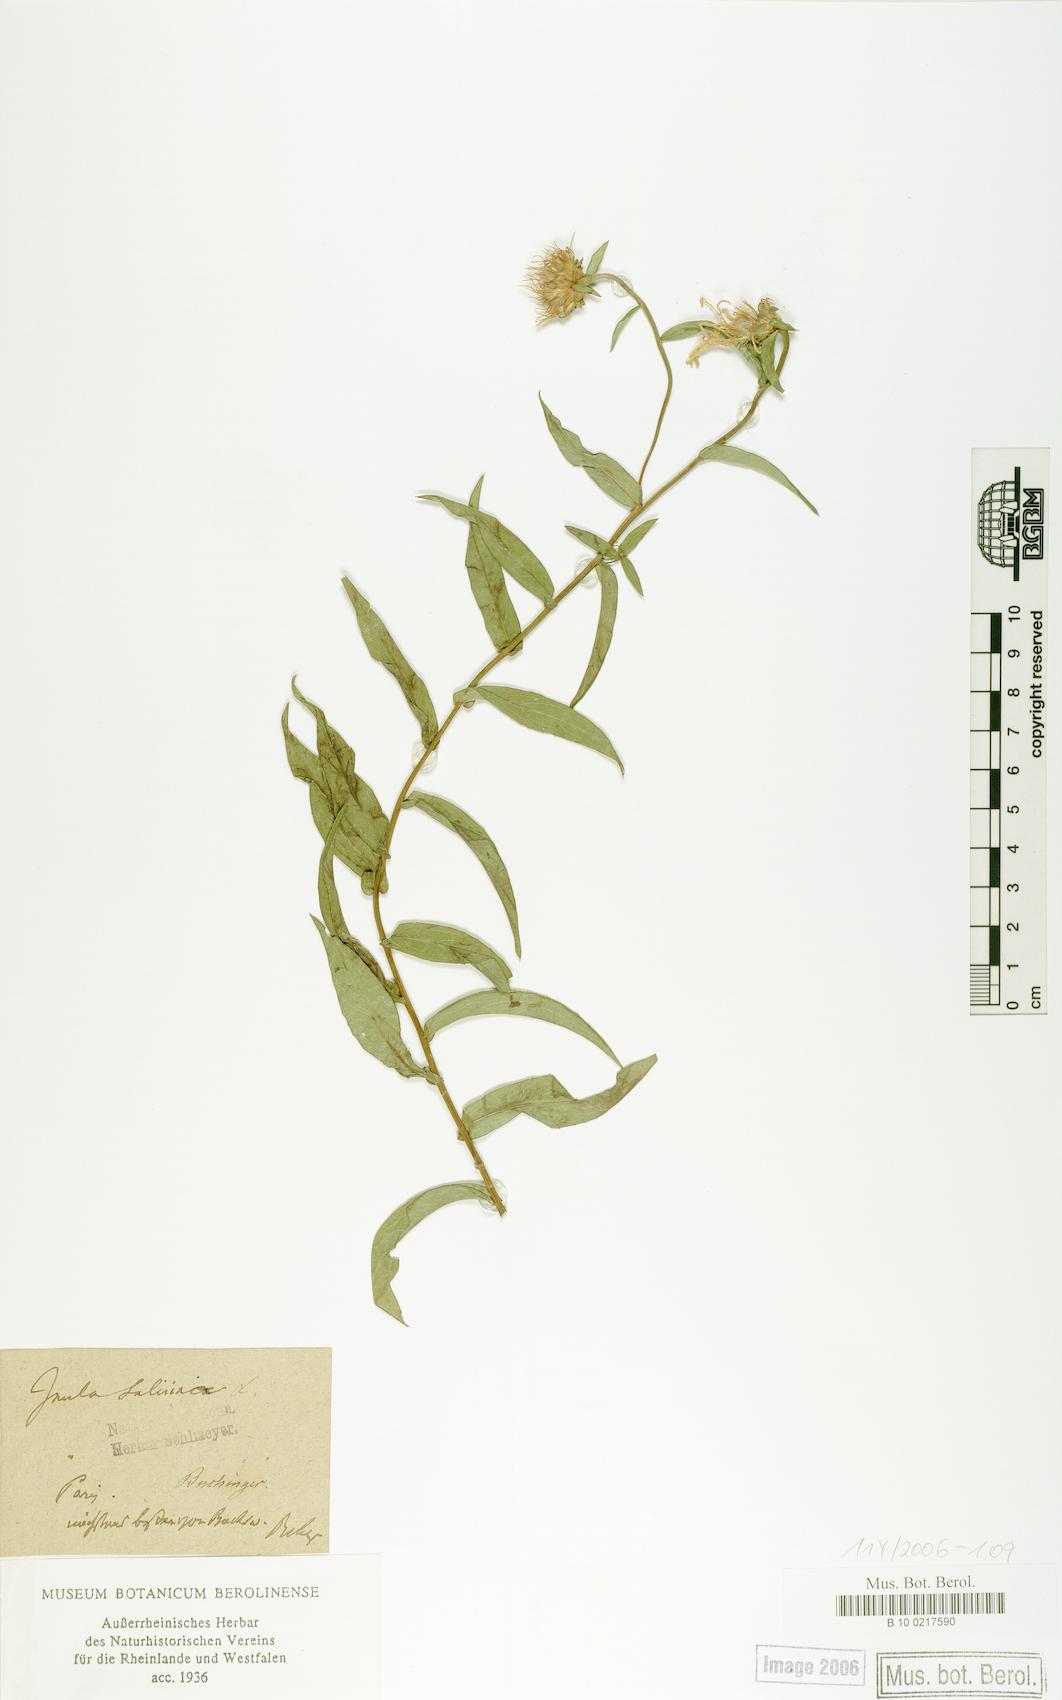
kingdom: Plantae
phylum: Tracheophyta
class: Magnoliopsida
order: Asterales
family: Asteraceae
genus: Pentanema
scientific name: Pentanema salicinum
